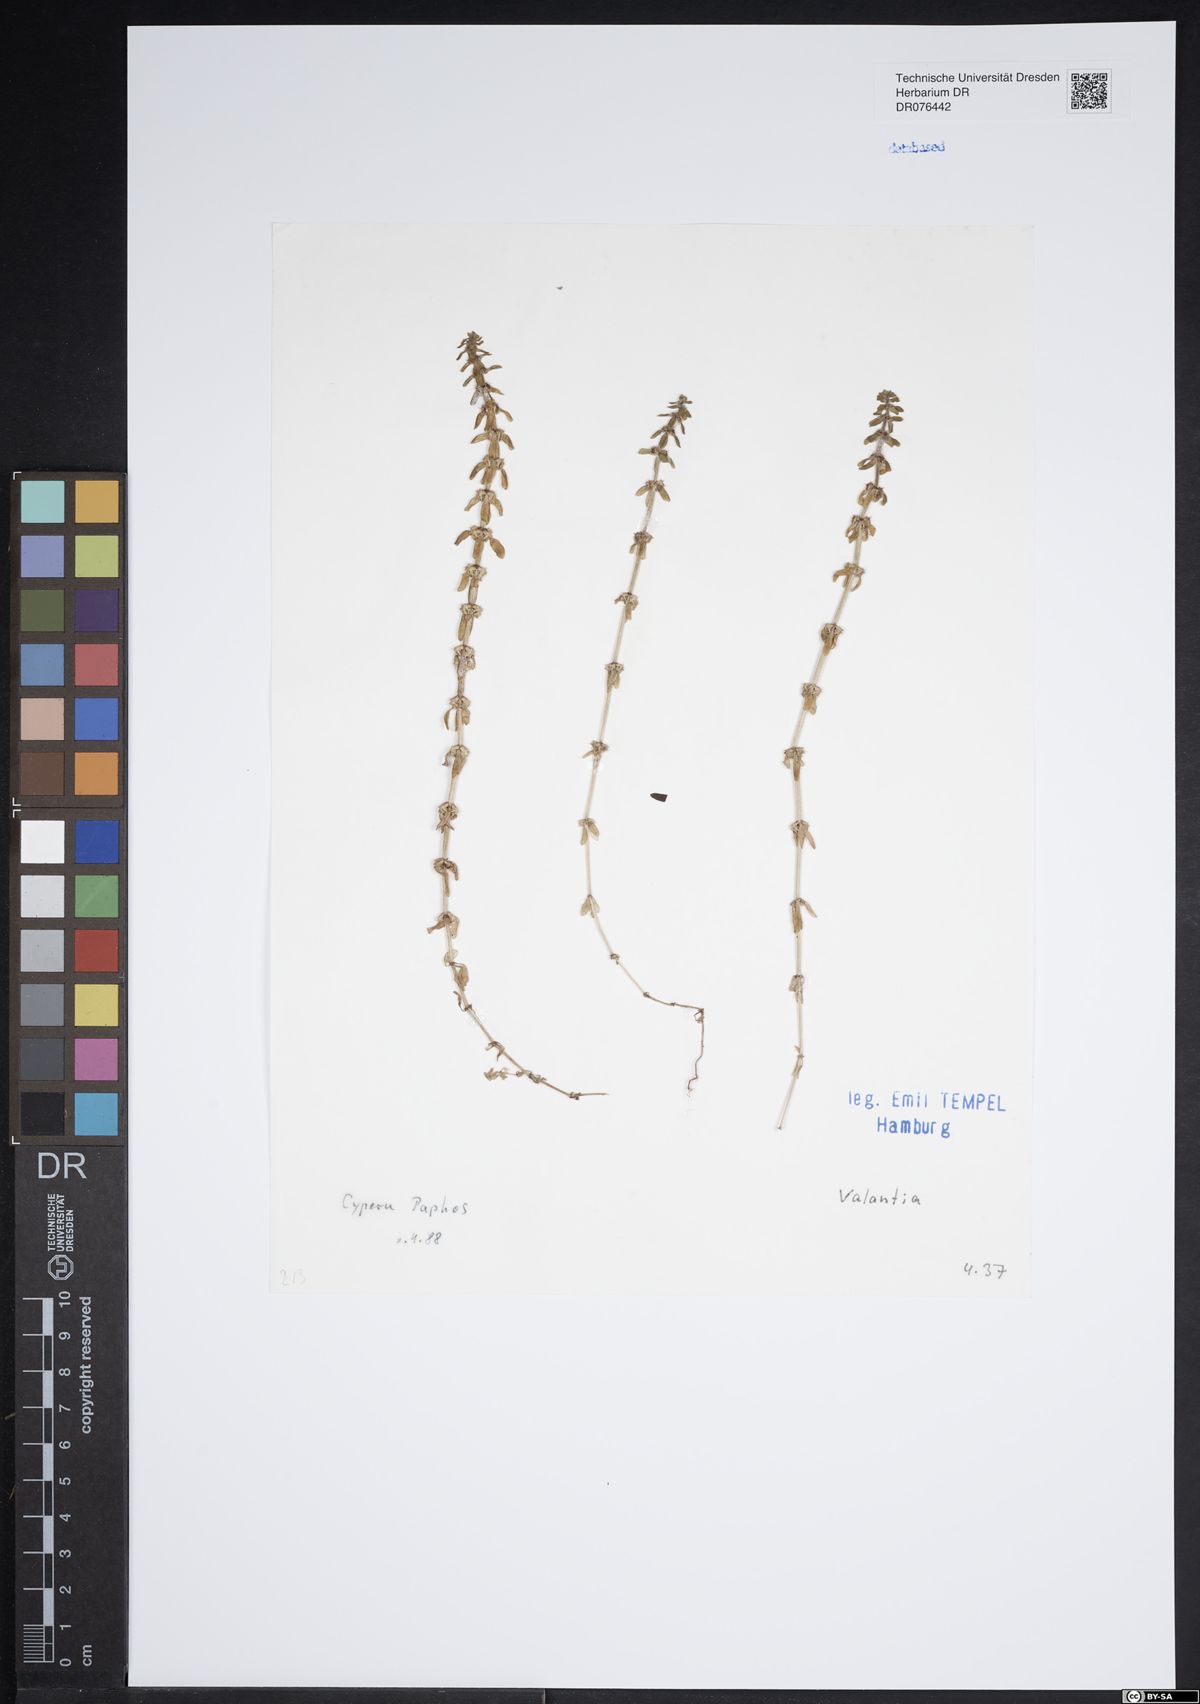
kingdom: Plantae
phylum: Tracheophyta
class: Magnoliopsida
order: Gentianales
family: Rubiaceae
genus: Valantia
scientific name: Valantia
